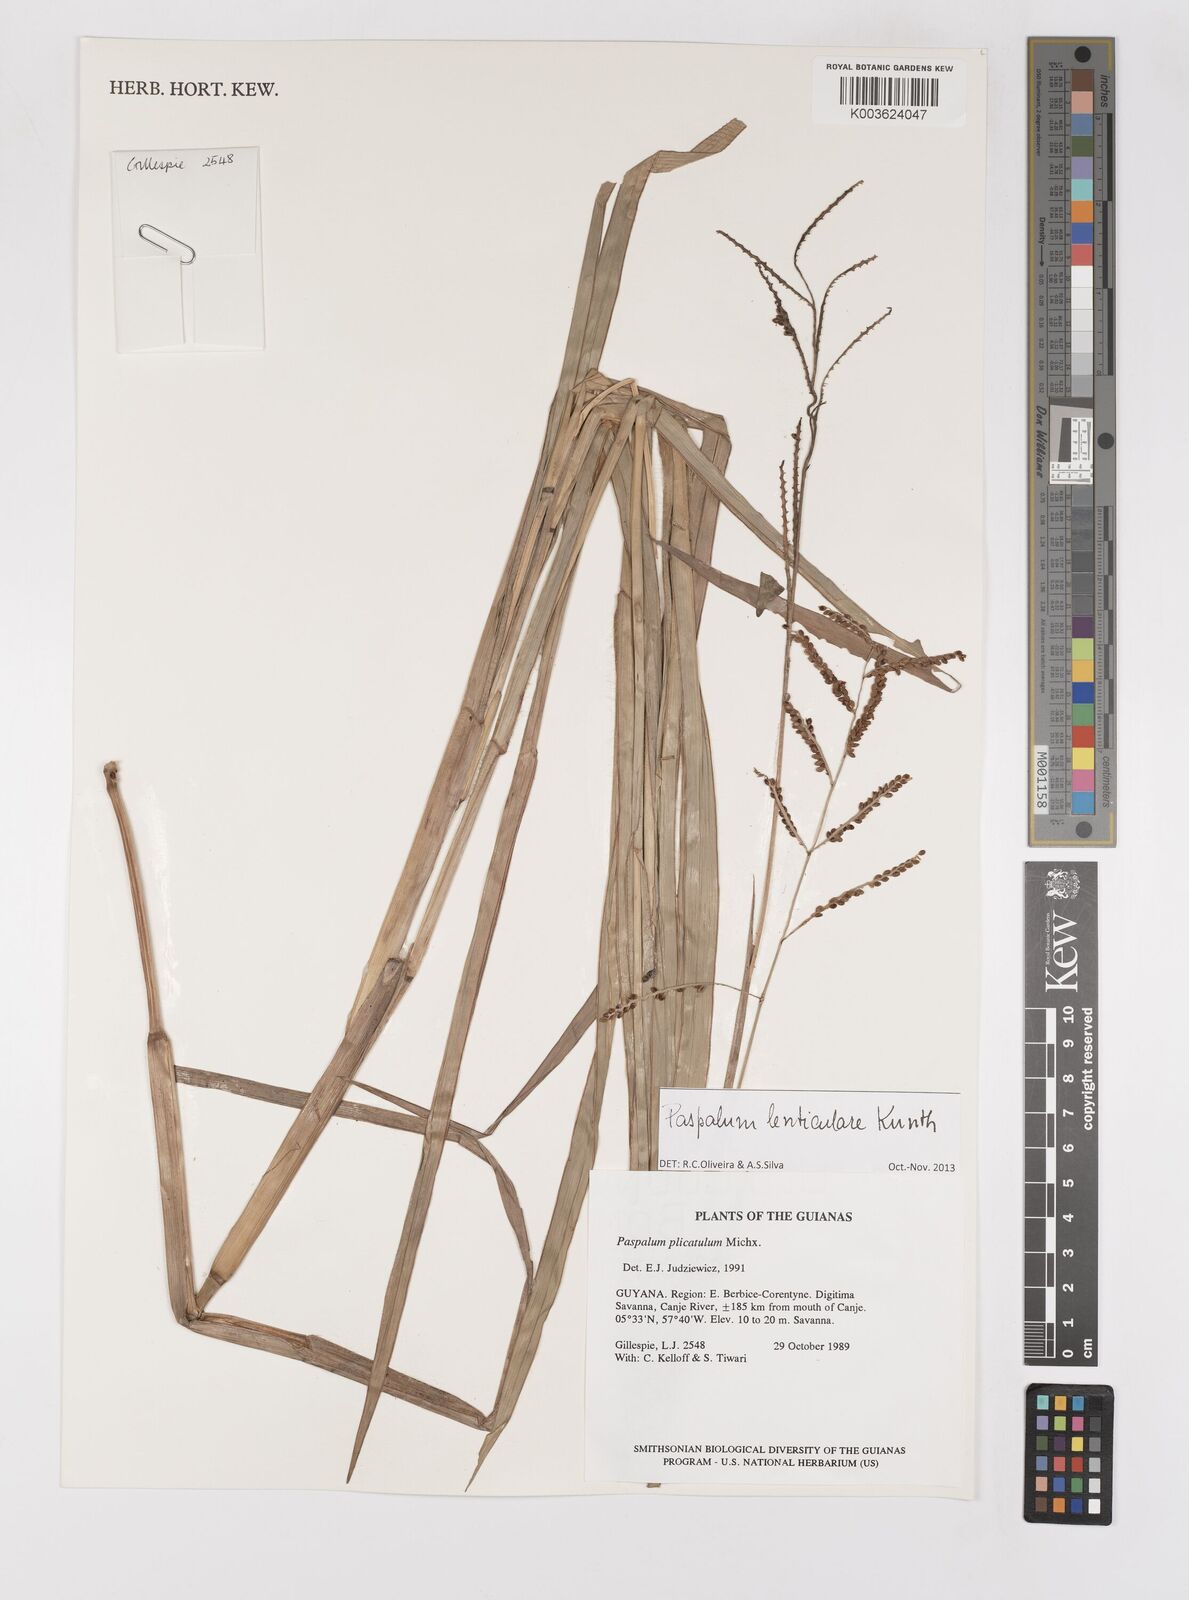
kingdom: Plantae
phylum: Tracheophyta
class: Liliopsida
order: Poales
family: Poaceae
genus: Paspalum
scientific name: Paspalum plicatulum
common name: Top paspalum
